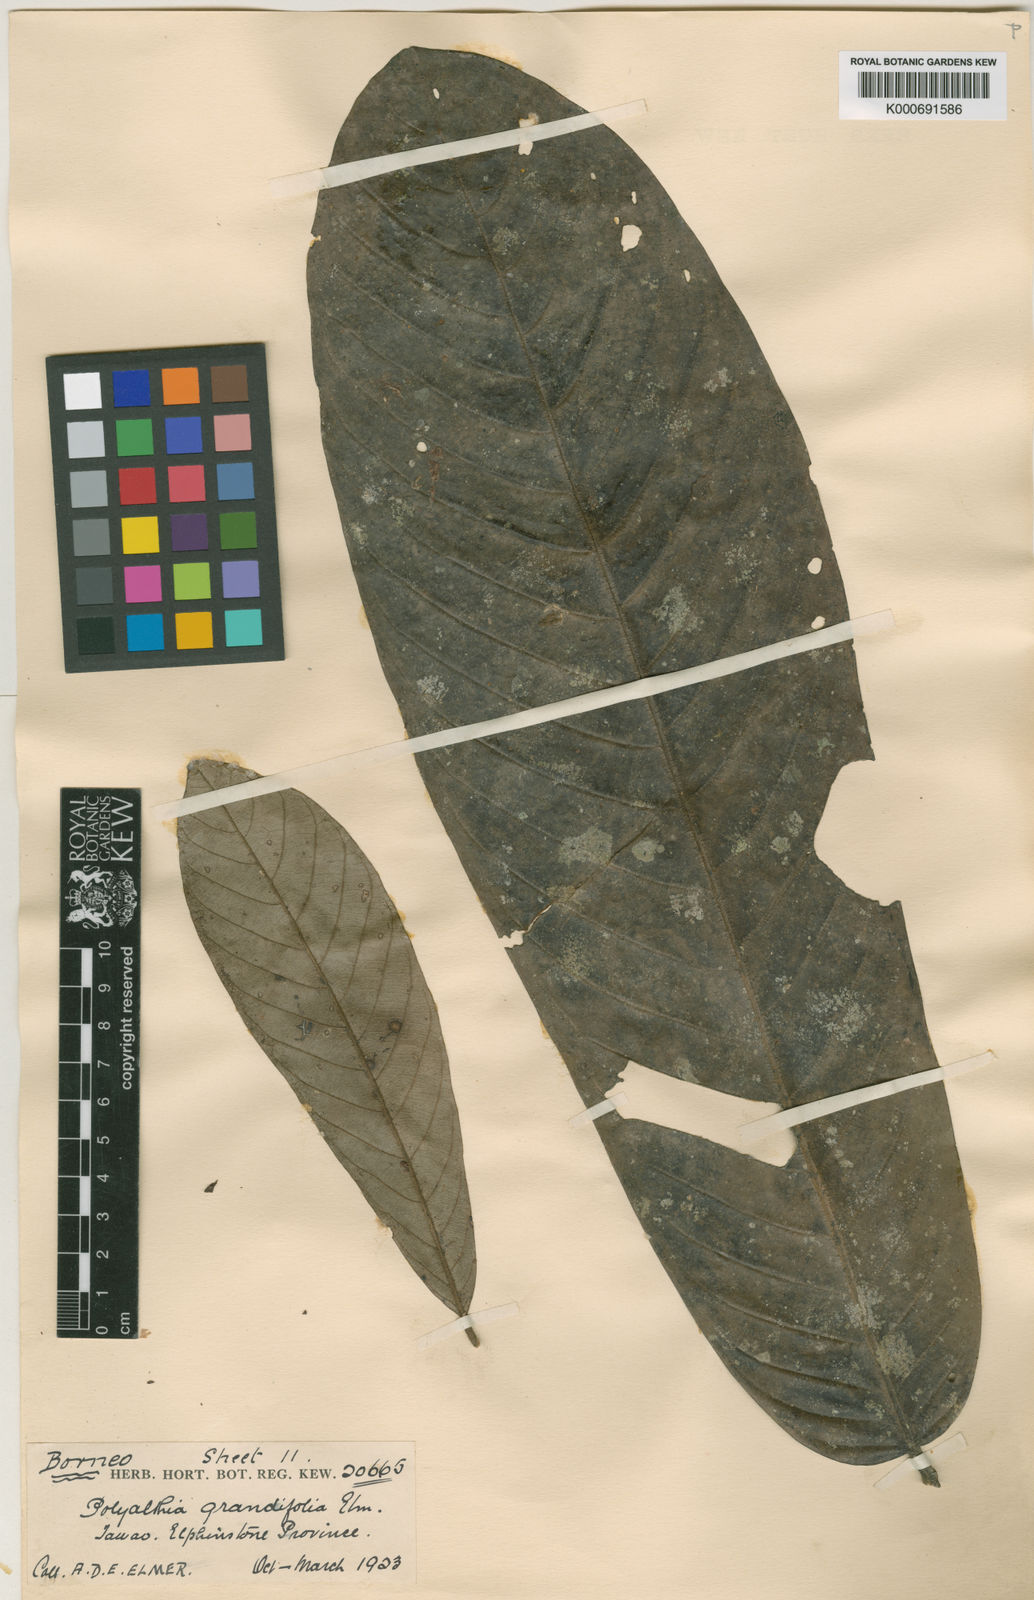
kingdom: Plantae
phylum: Tracheophyta
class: Magnoliopsida
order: Magnoliales
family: Annonaceae
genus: Enicosanthum
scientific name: Enicosanthum grandifolium
